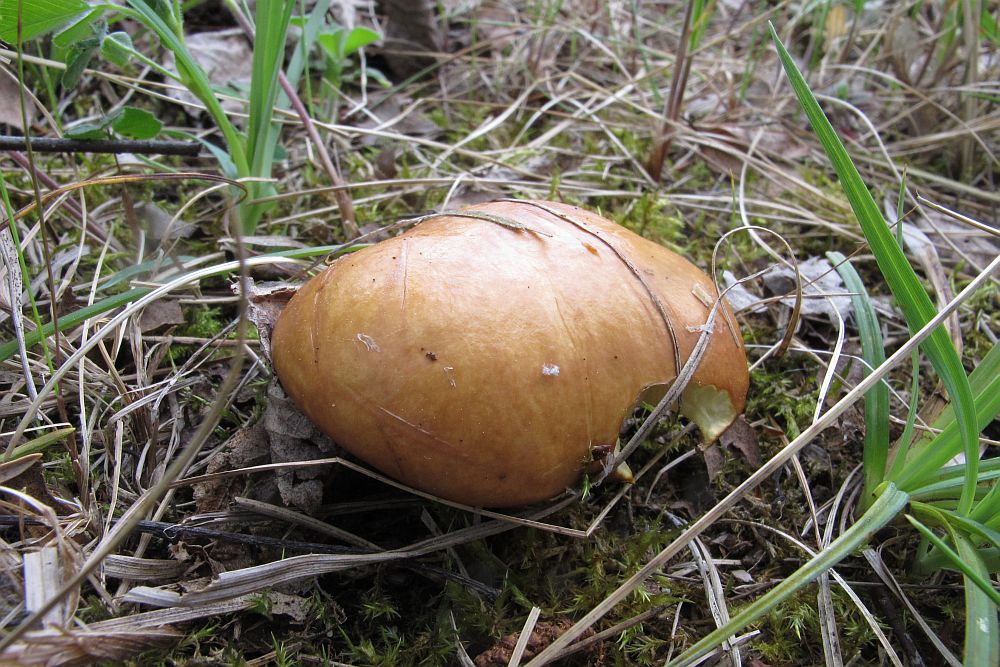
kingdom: Fungi
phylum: Basidiomycota
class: Agaricomycetes
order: Boletales
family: Suillaceae
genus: Suillus
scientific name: Suillus granulatus
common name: kornet slimrørhat
